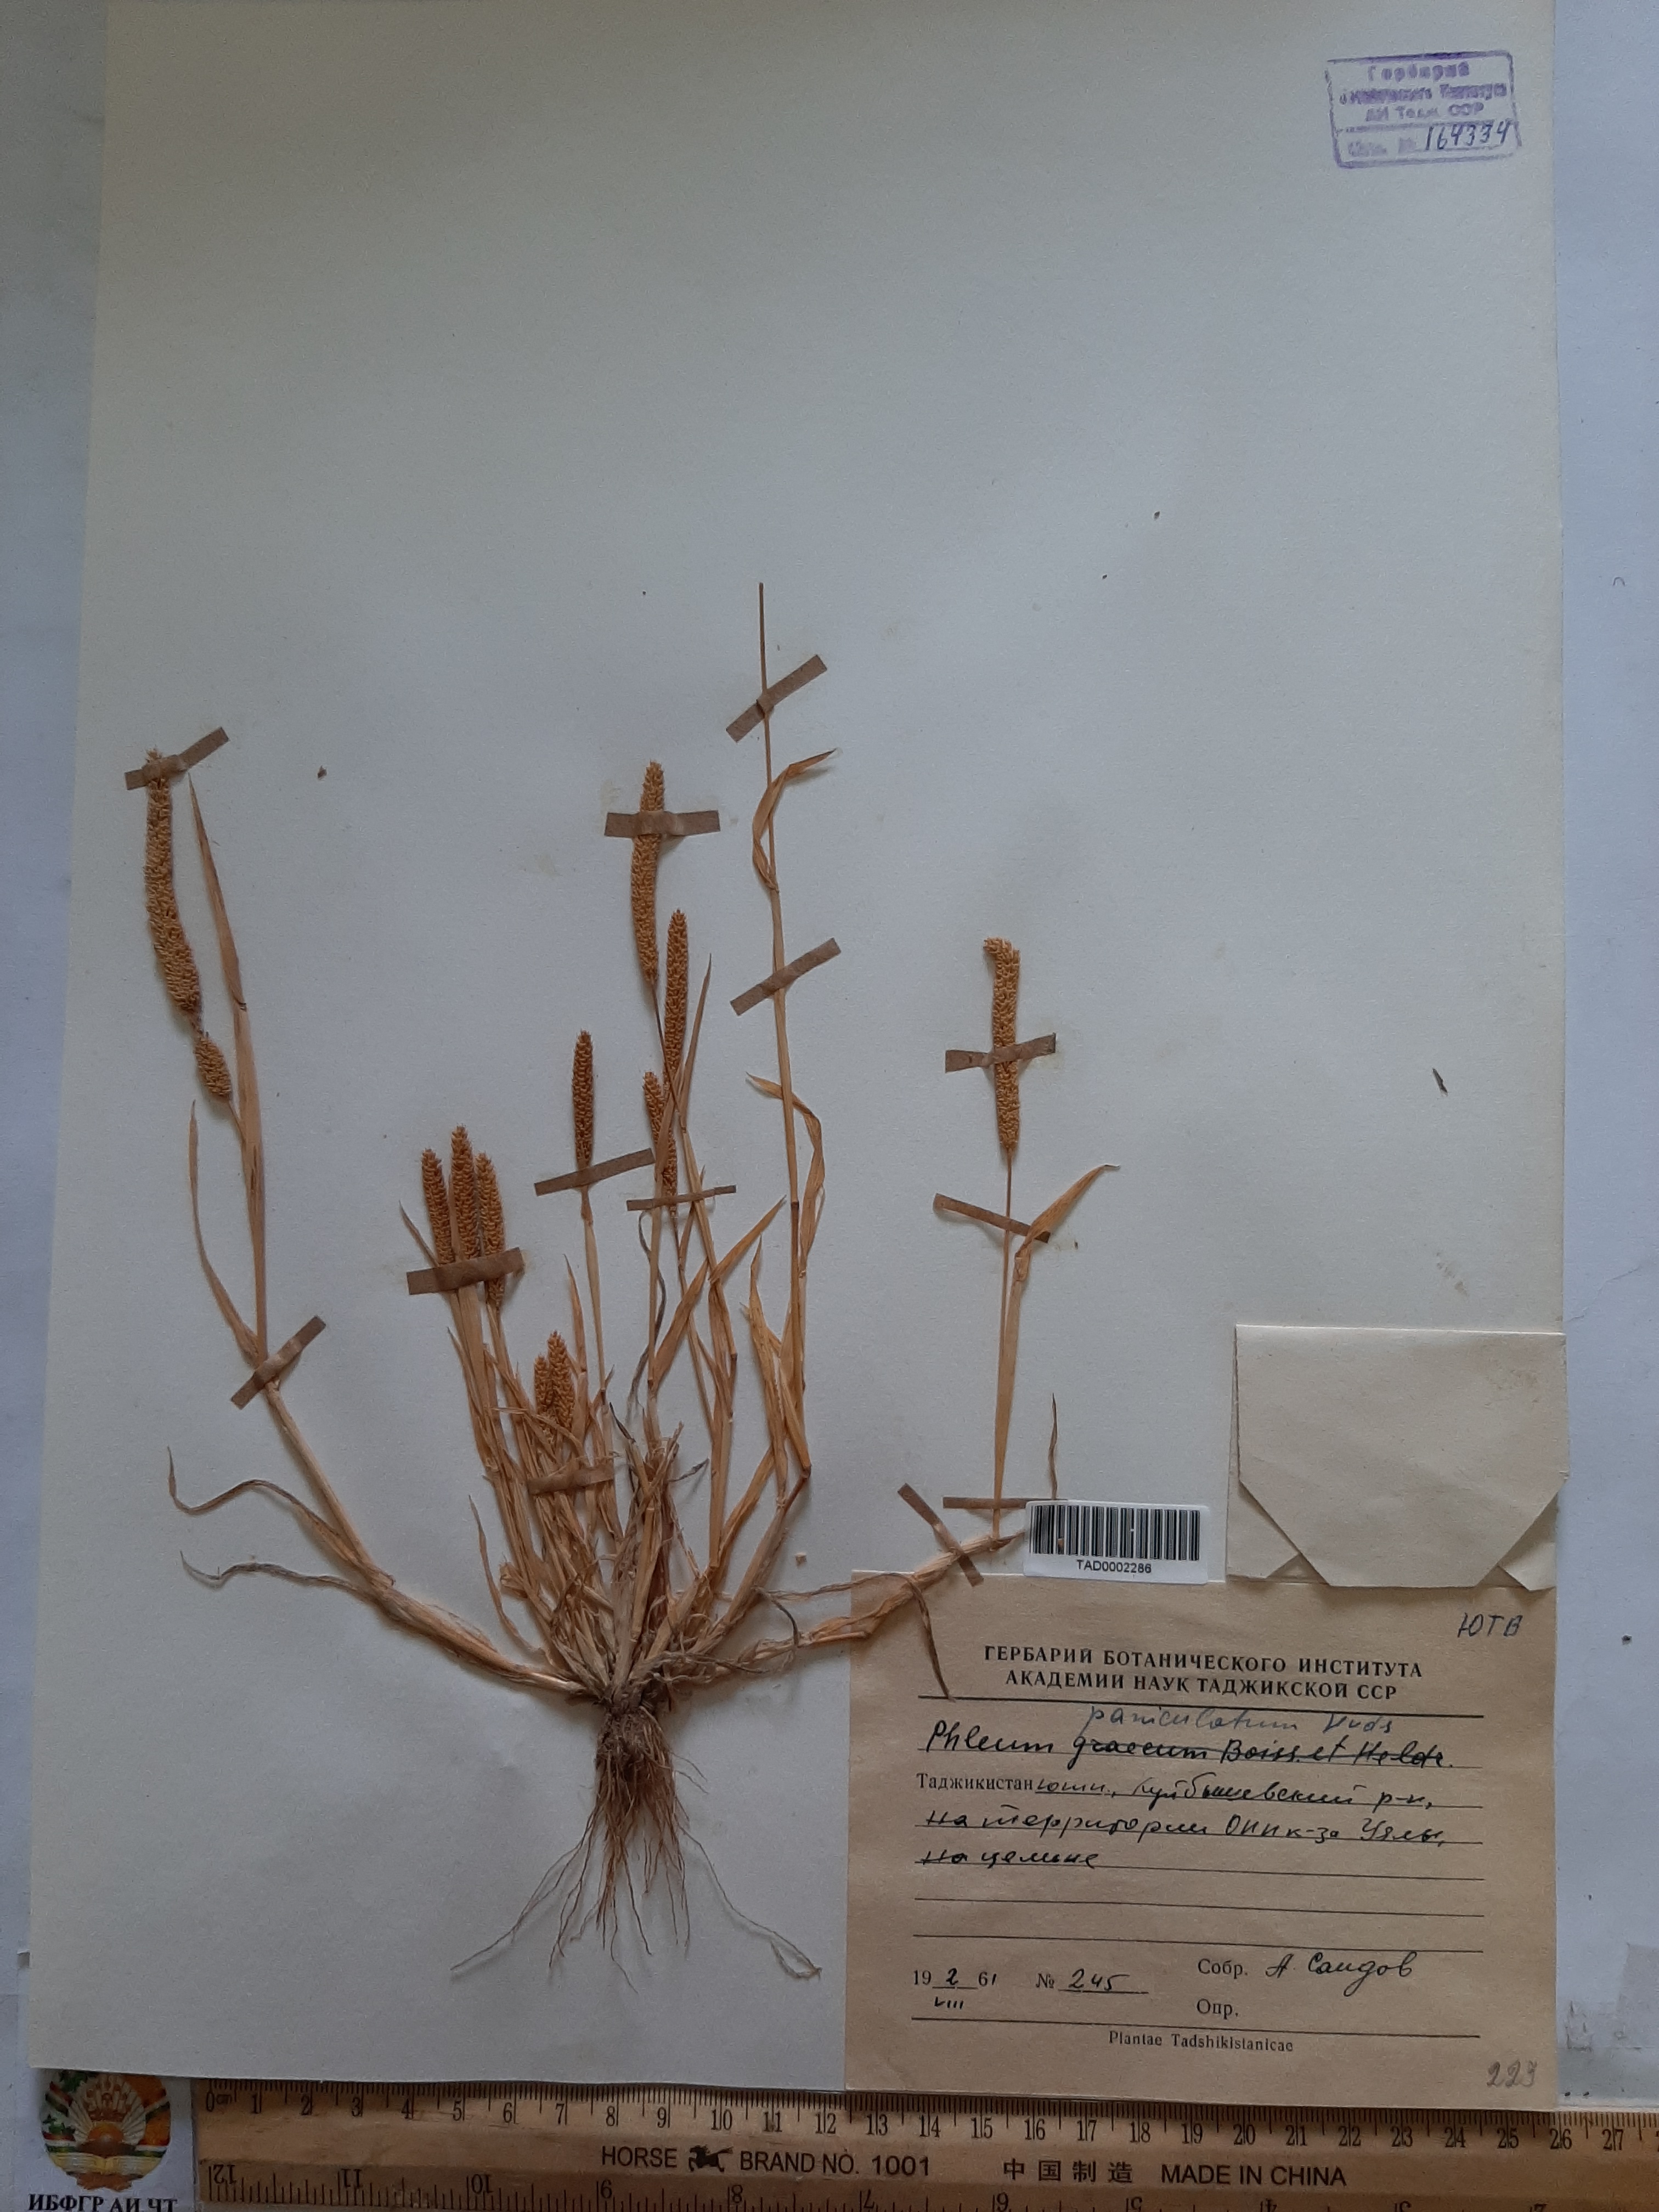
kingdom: Plantae
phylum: Tracheophyta
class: Liliopsida
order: Poales
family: Poaceae
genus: Phleum
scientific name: Phleum paniculatum
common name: British timothy
